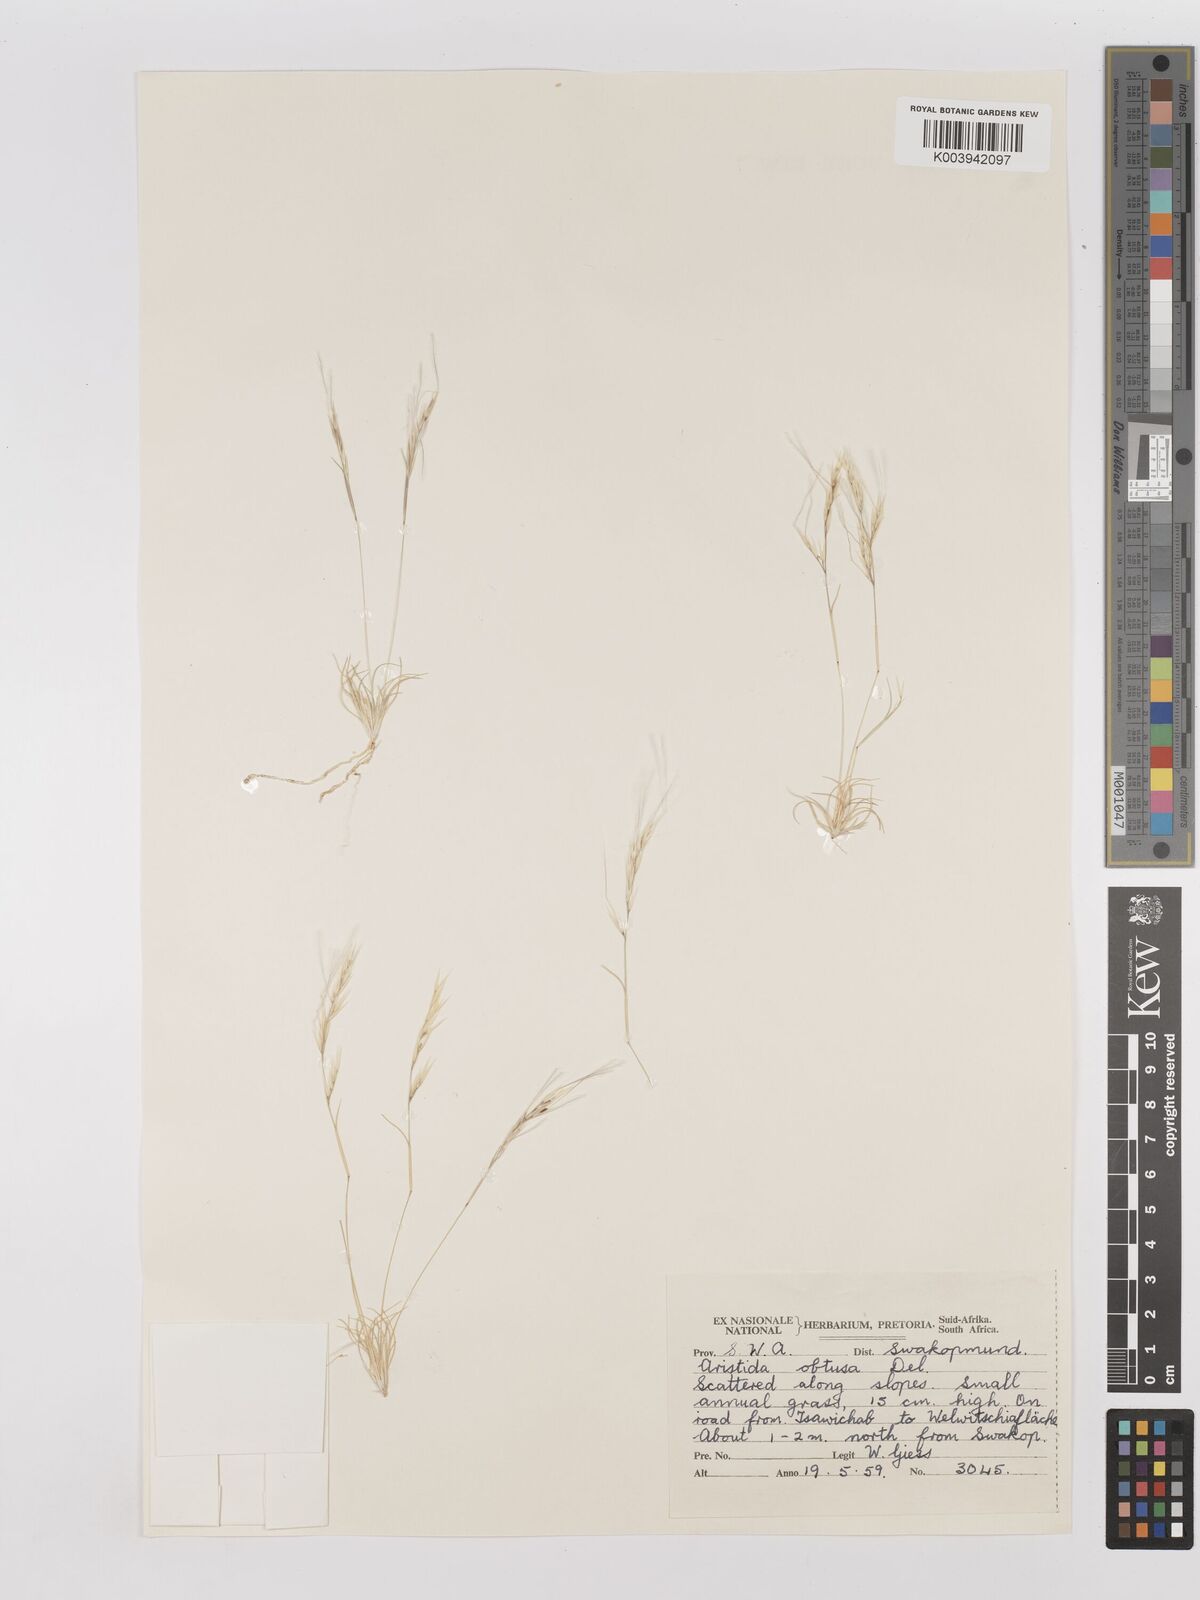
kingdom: Plantae
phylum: Tracheophyta
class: Liliopsida
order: Poales
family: Poaceae
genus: Stipagrostis
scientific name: Stipagrostis obtusa
